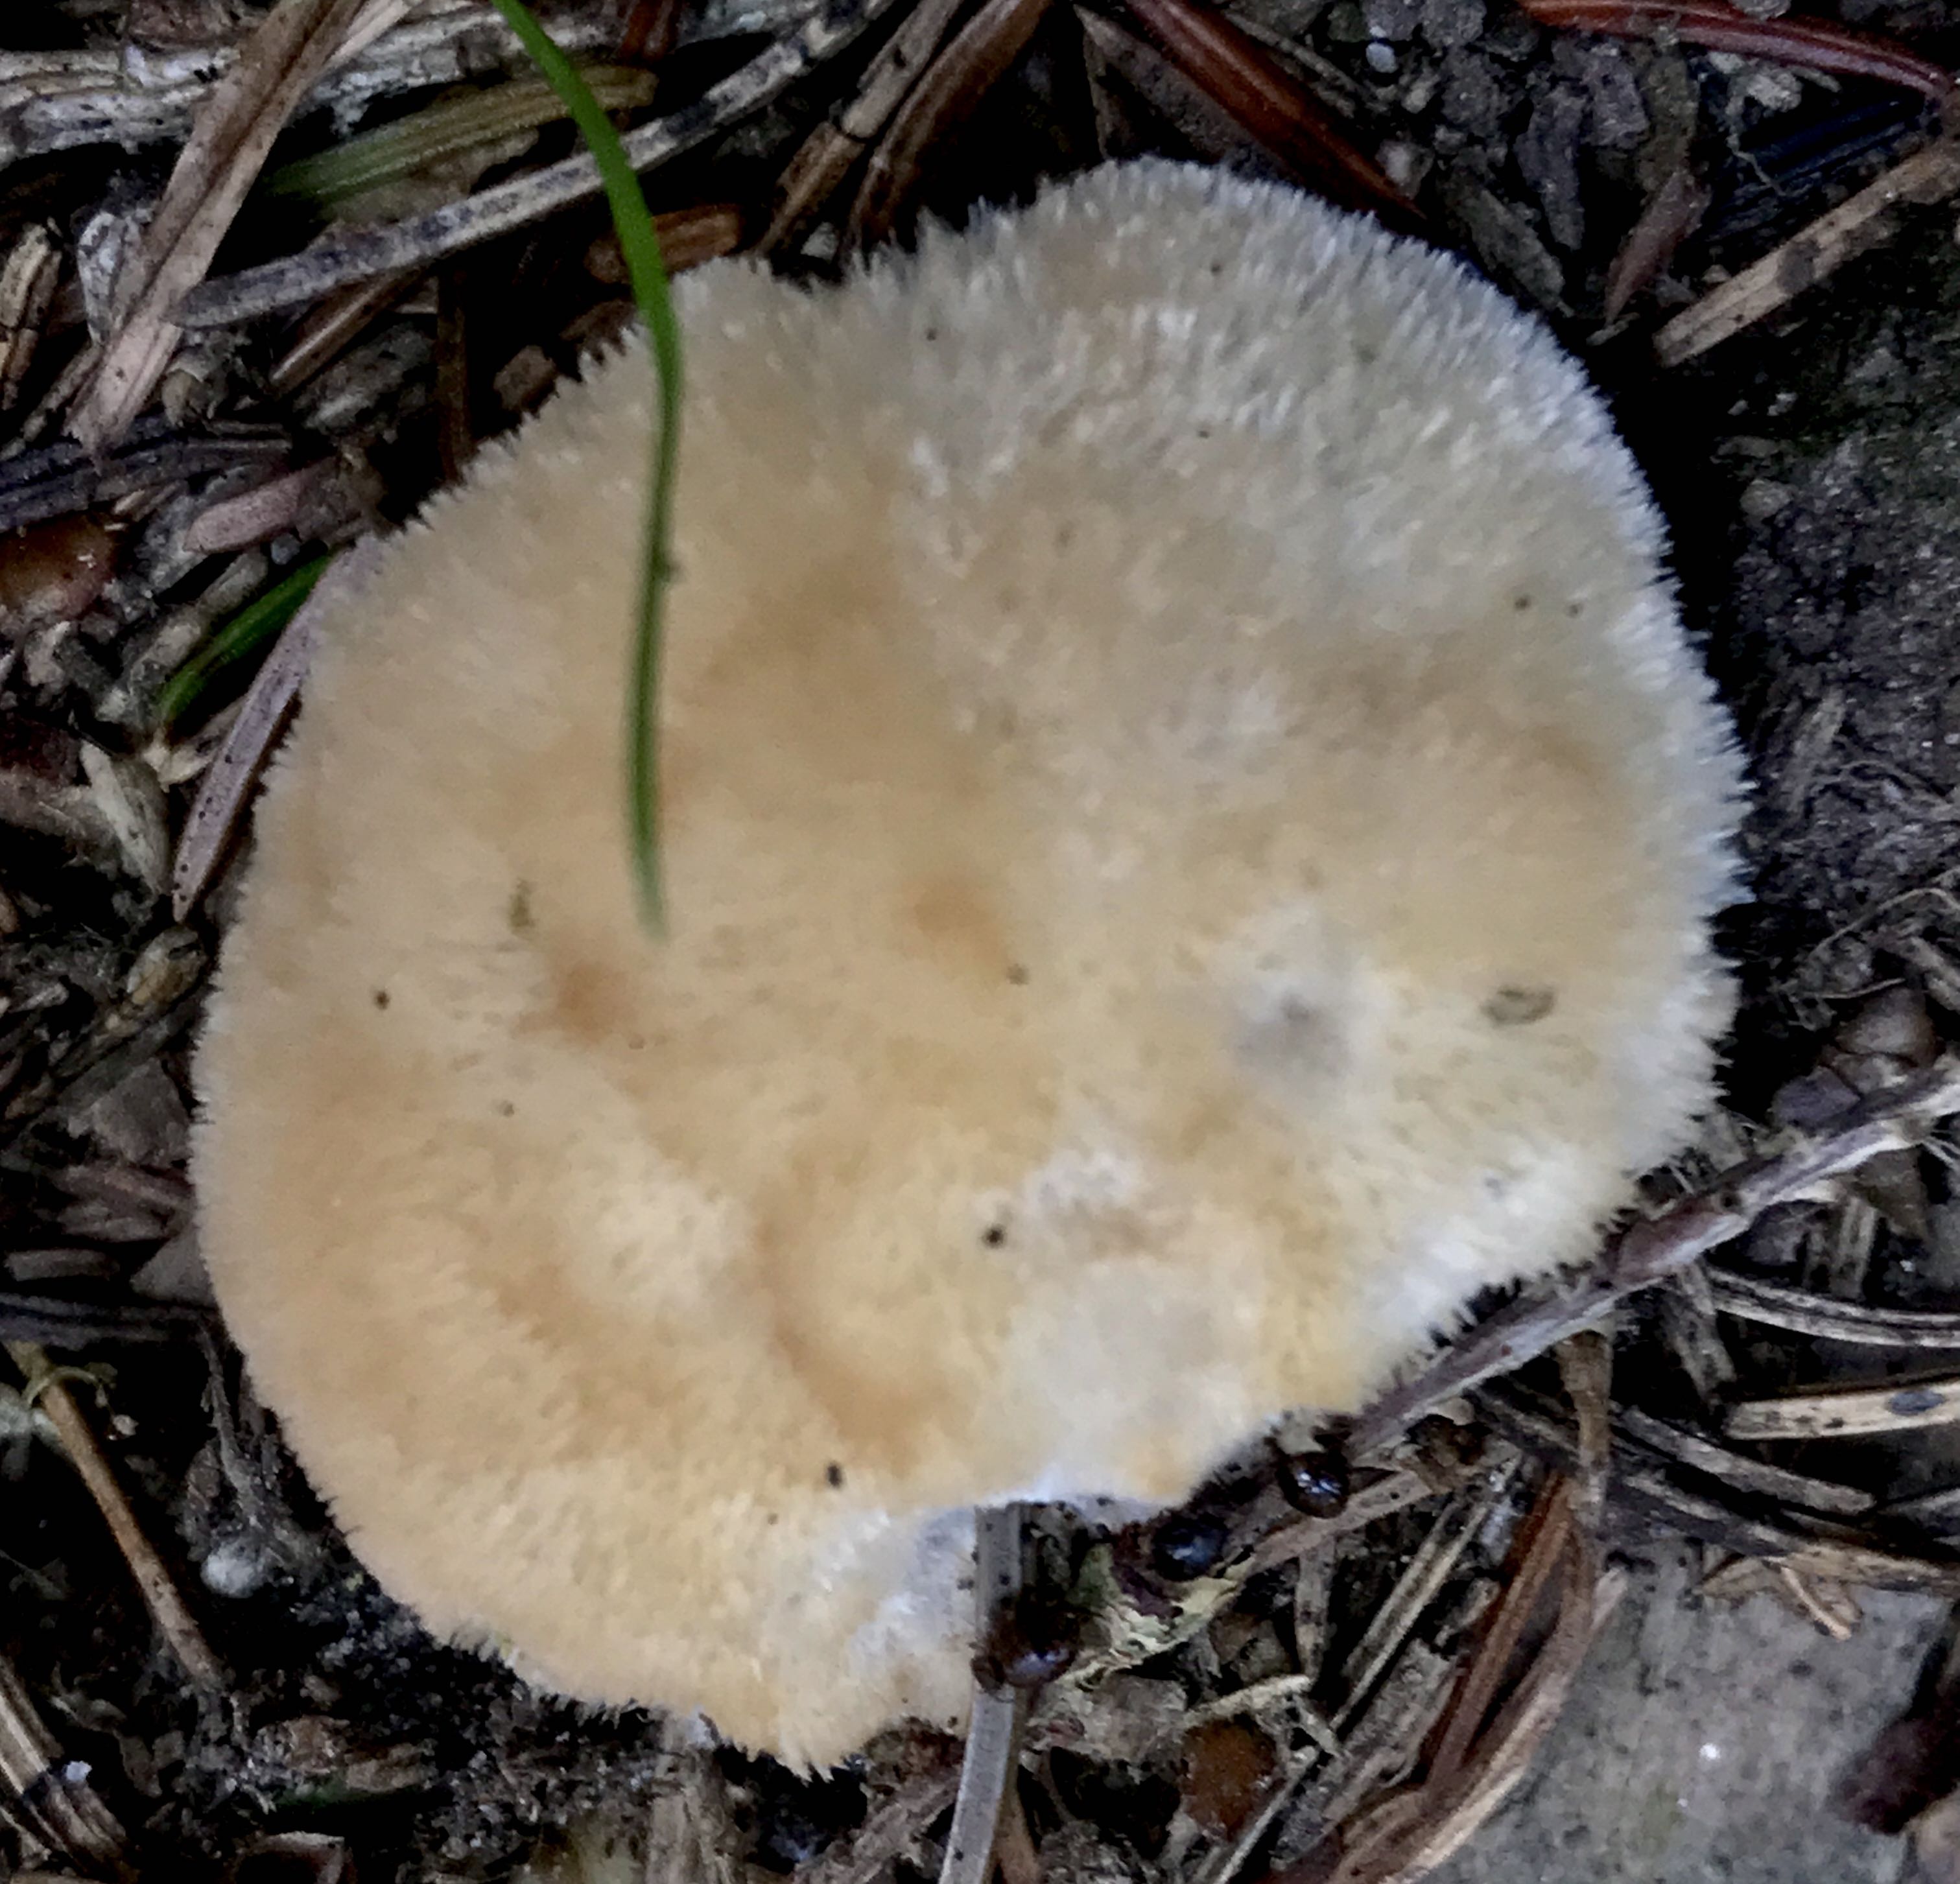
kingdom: Fungi
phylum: Basidiomycota
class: Agaricomycetes
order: Polyporales
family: Dacryobolaceae
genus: Postia
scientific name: Postia ptychogaster
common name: støvende kødporesvamp
